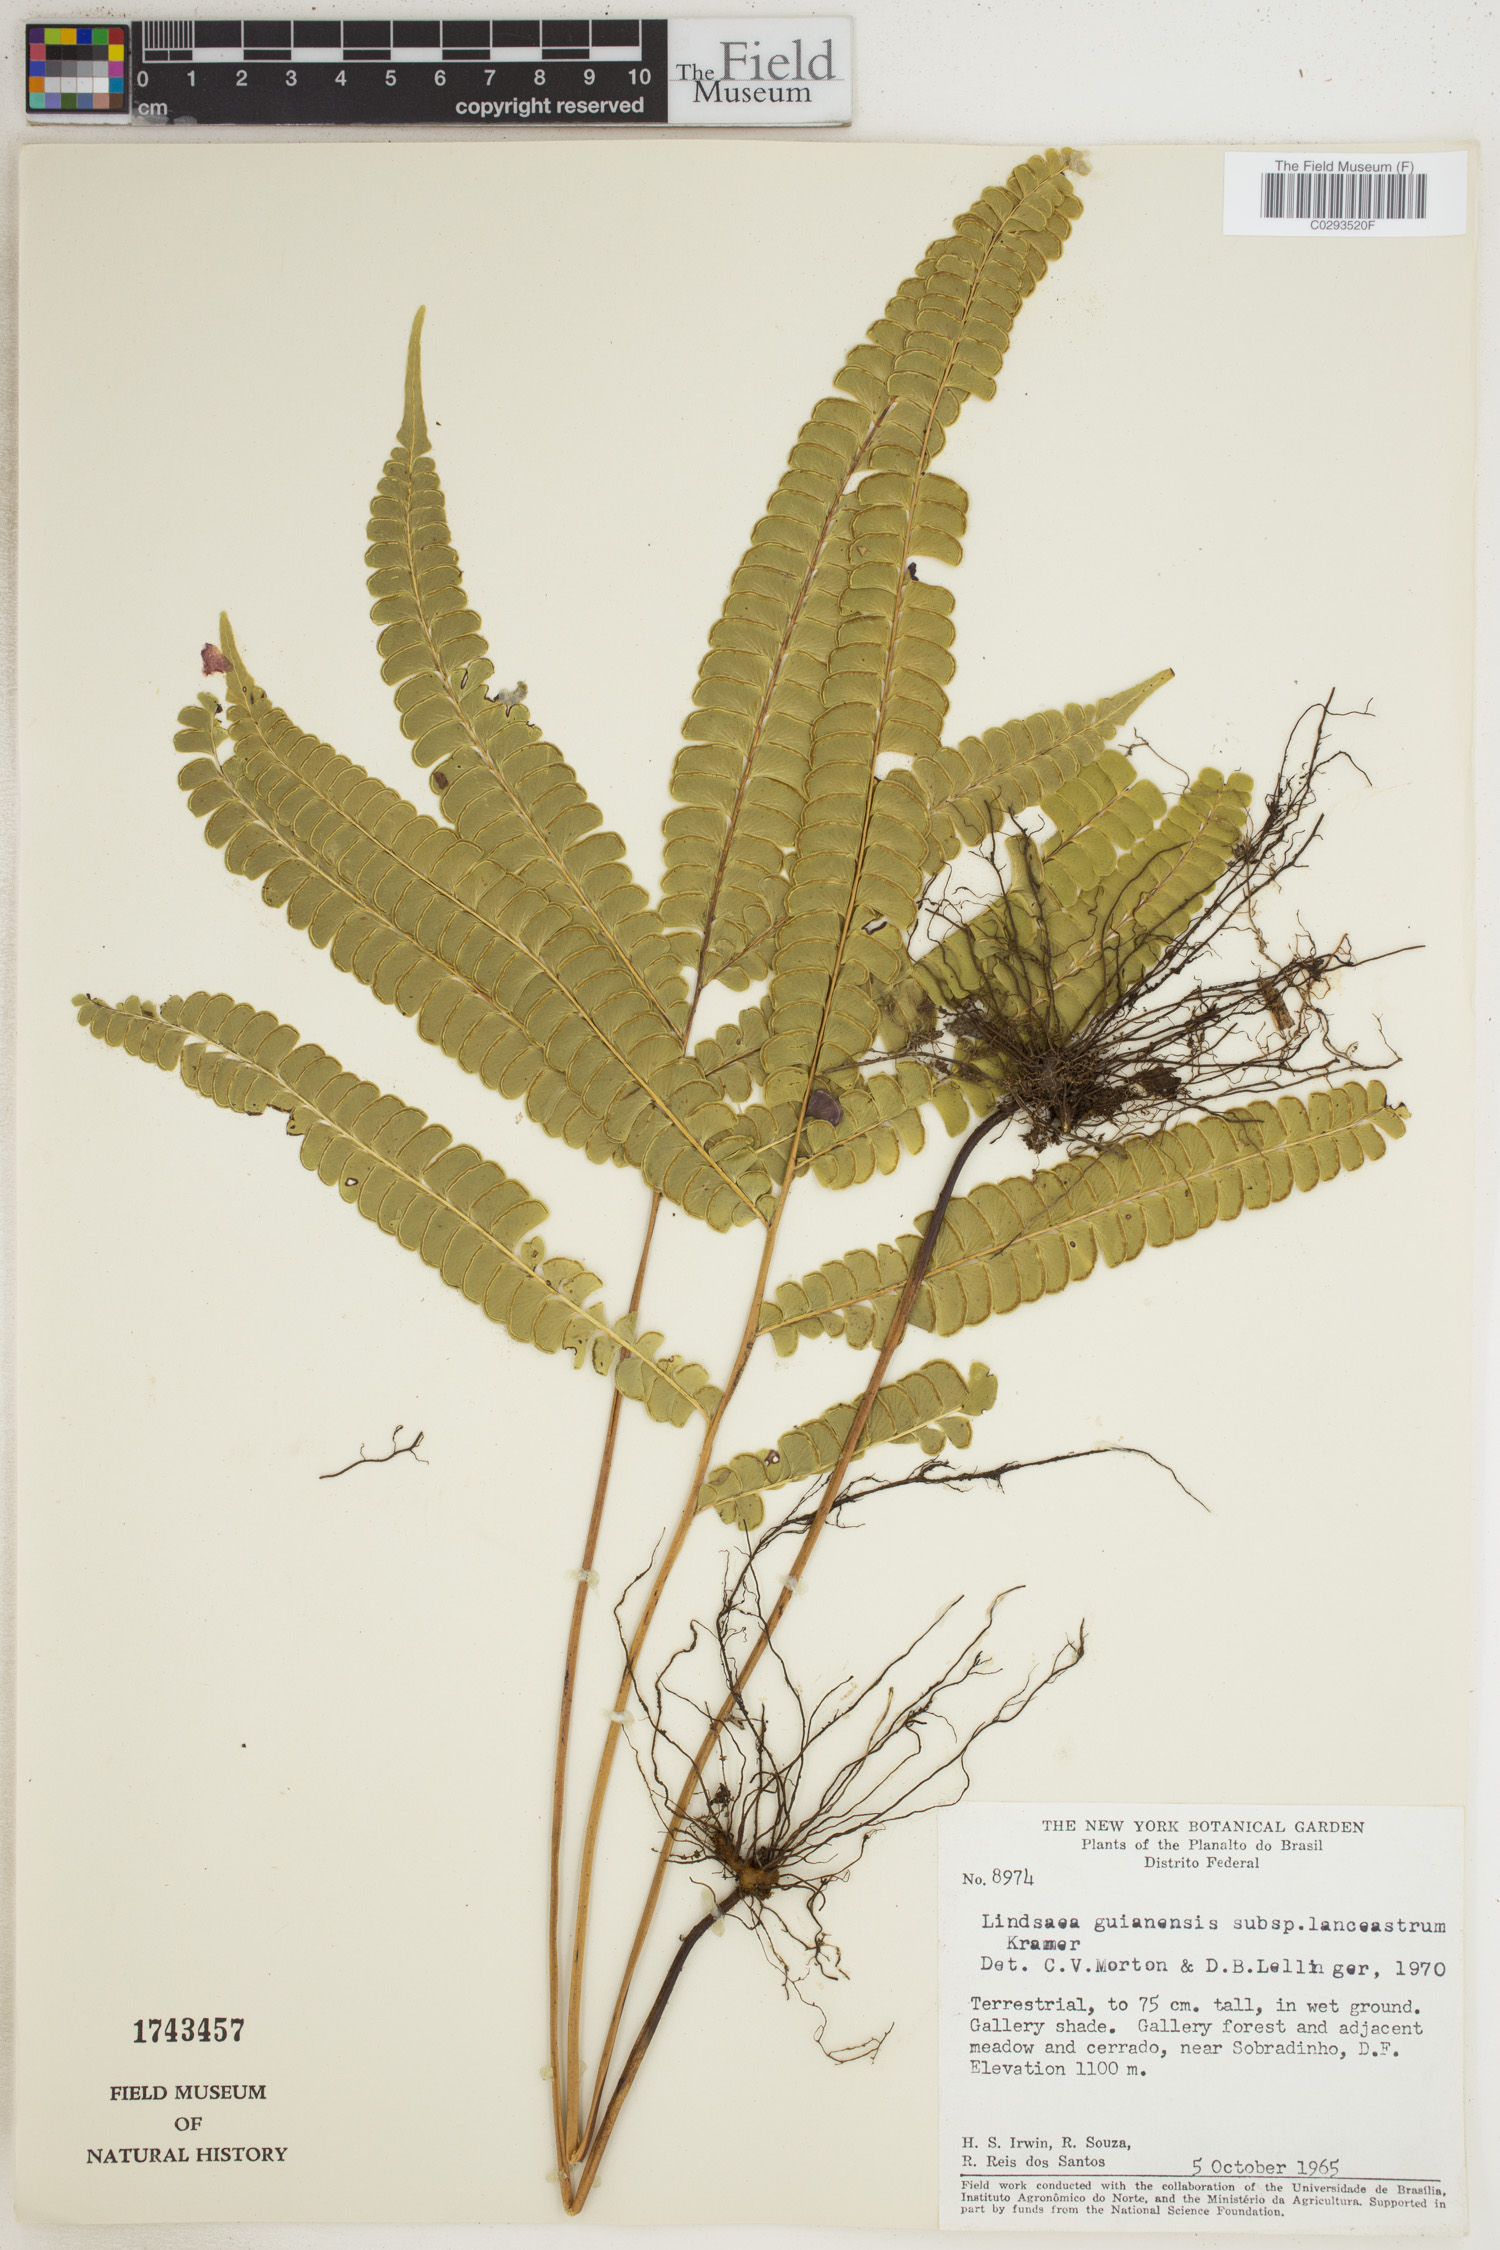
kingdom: Plantae
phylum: Tracheophyta
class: Polypodiopsida
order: Polypodiales
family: Lindsaeaceae
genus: Lindsaea
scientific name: Lindsaea guianensis
